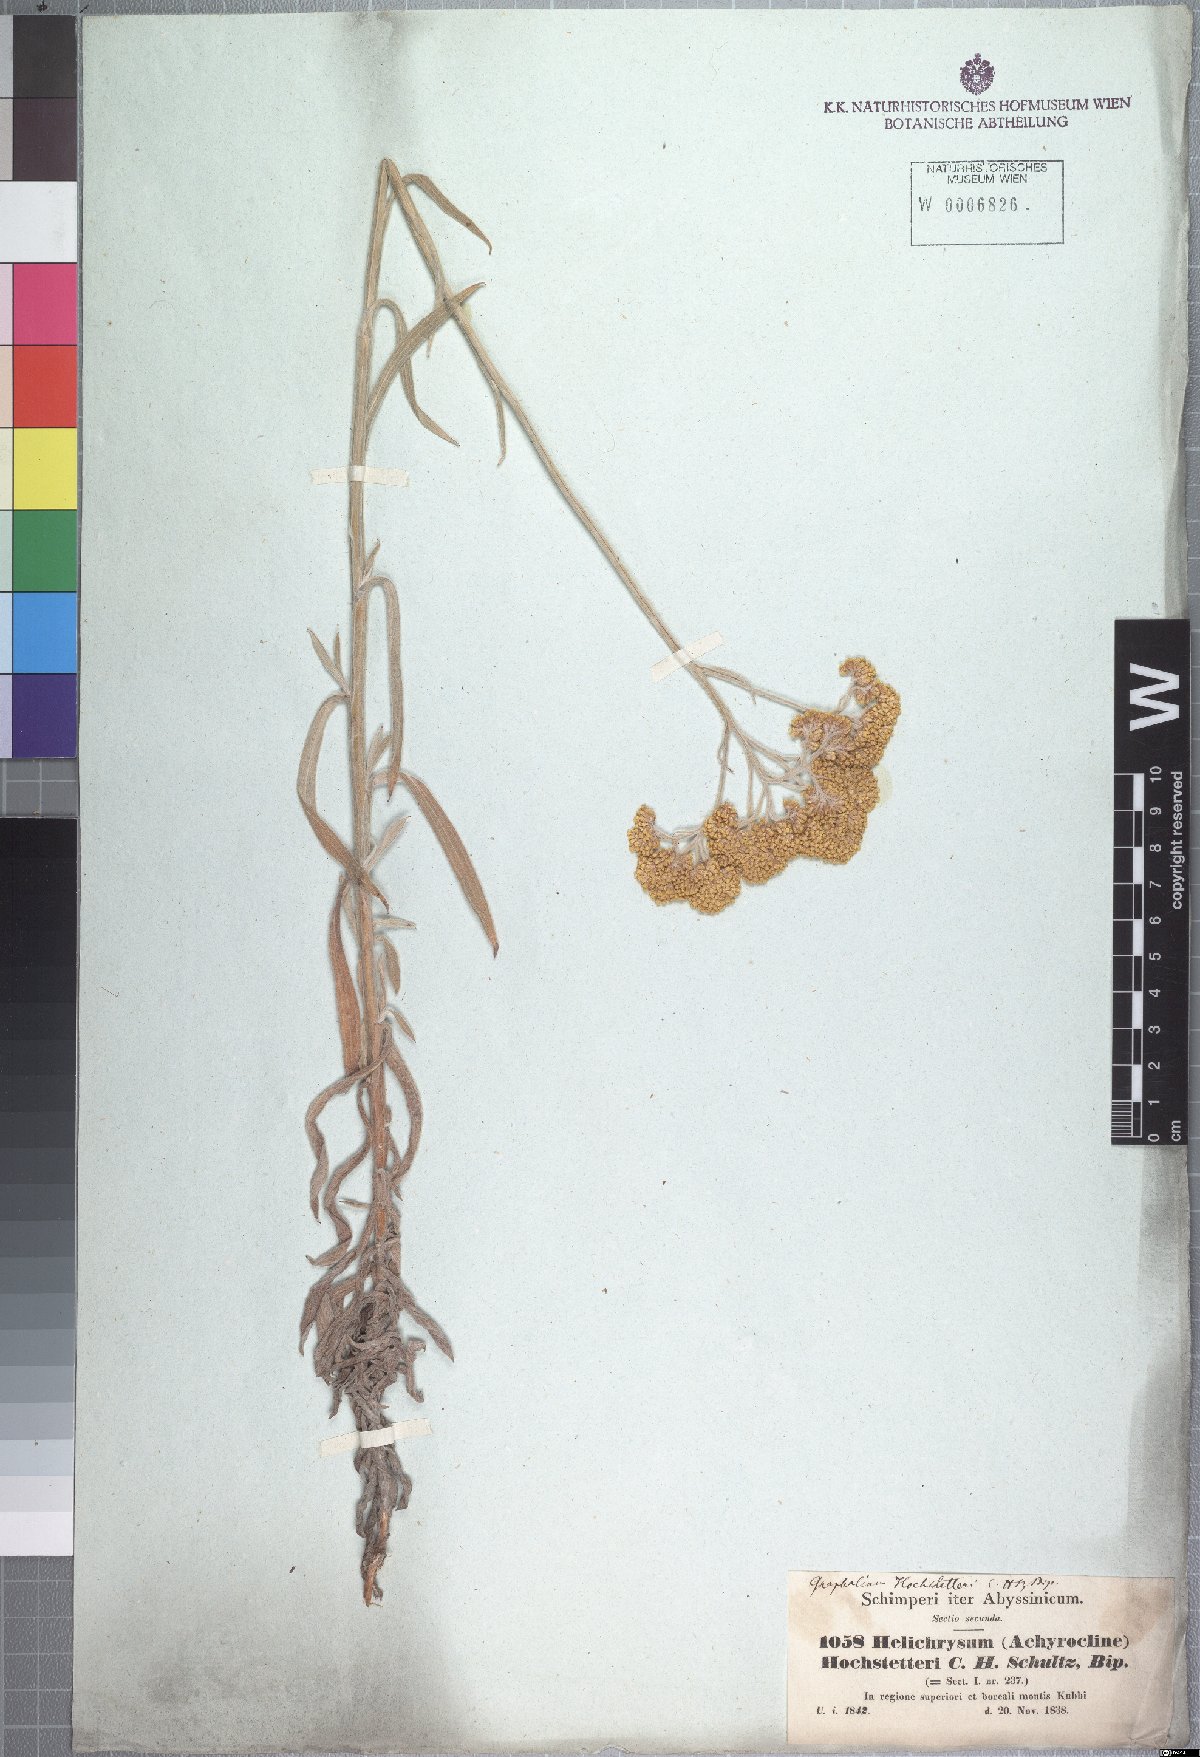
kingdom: Plantae
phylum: Tracheophyta
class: Magnoliopsida
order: Asterales
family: Asteraceae
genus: Helichrysum
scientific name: Helichrysum stenopterum
